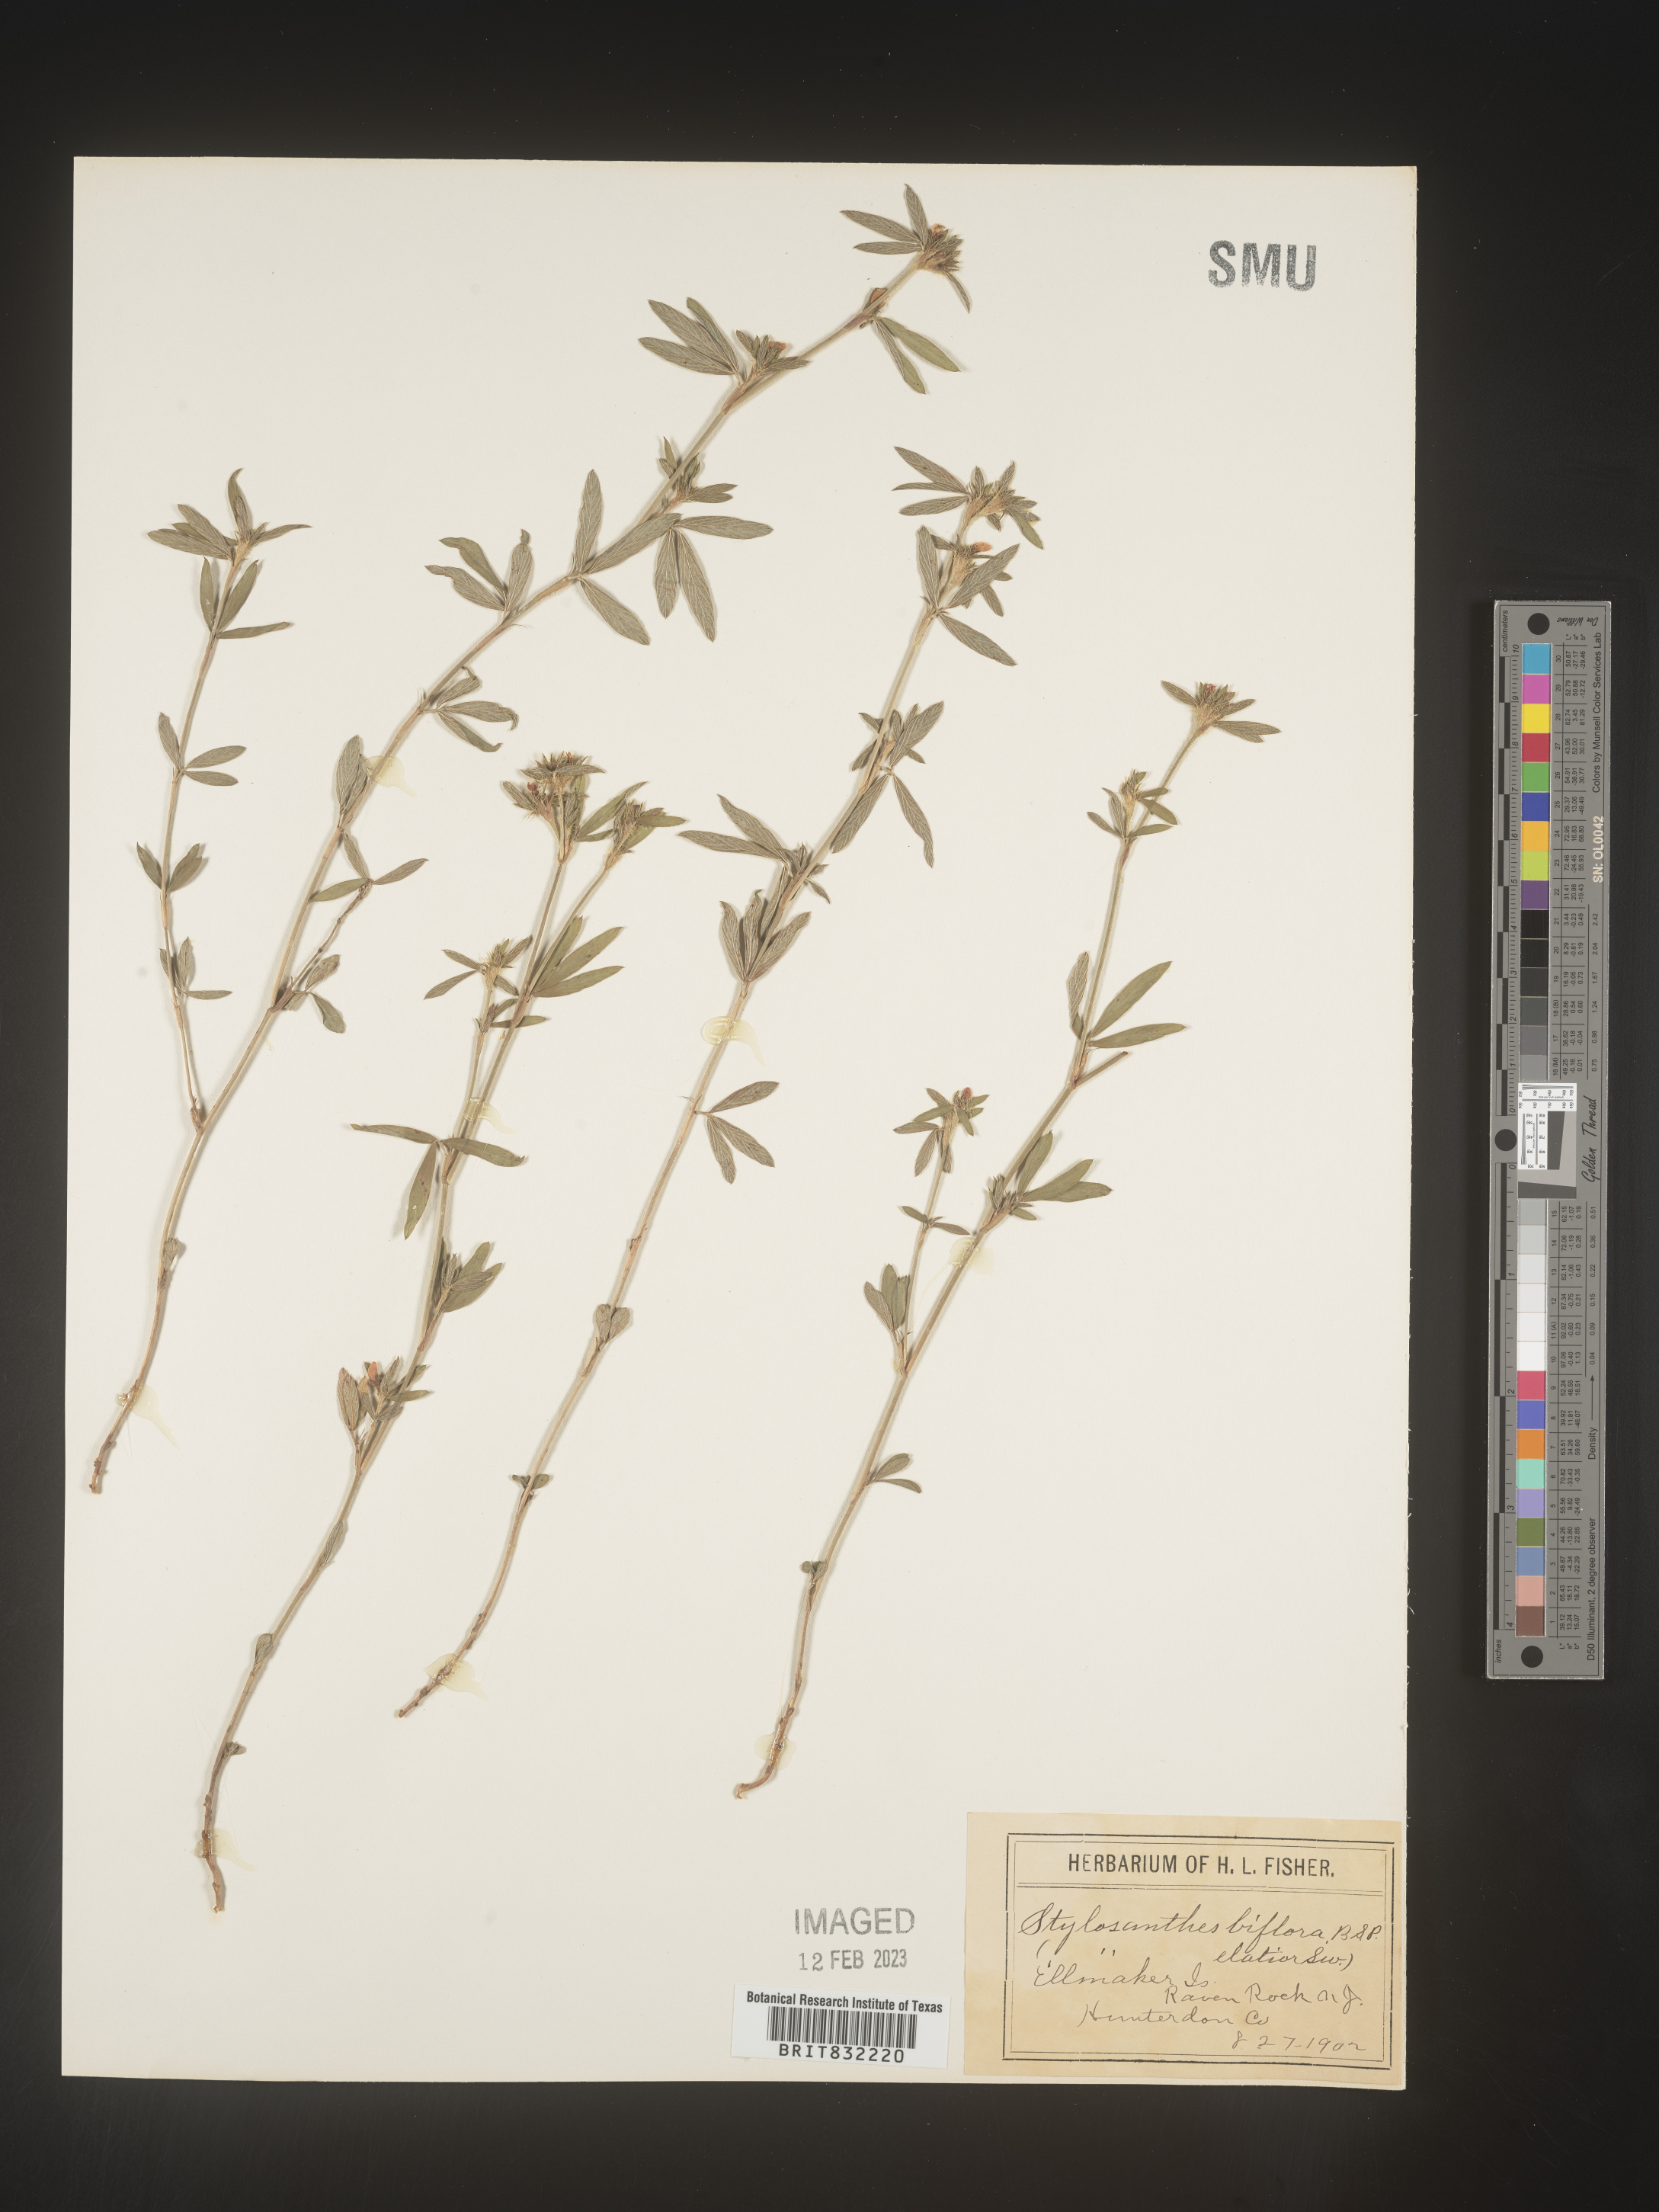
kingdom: Plantae
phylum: Tracheophyta
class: Magnoliopsida
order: Fabales
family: Fabaceae
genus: Stylosanthes
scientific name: Stylosanthes biflora
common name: Two-flower pencil-flower
